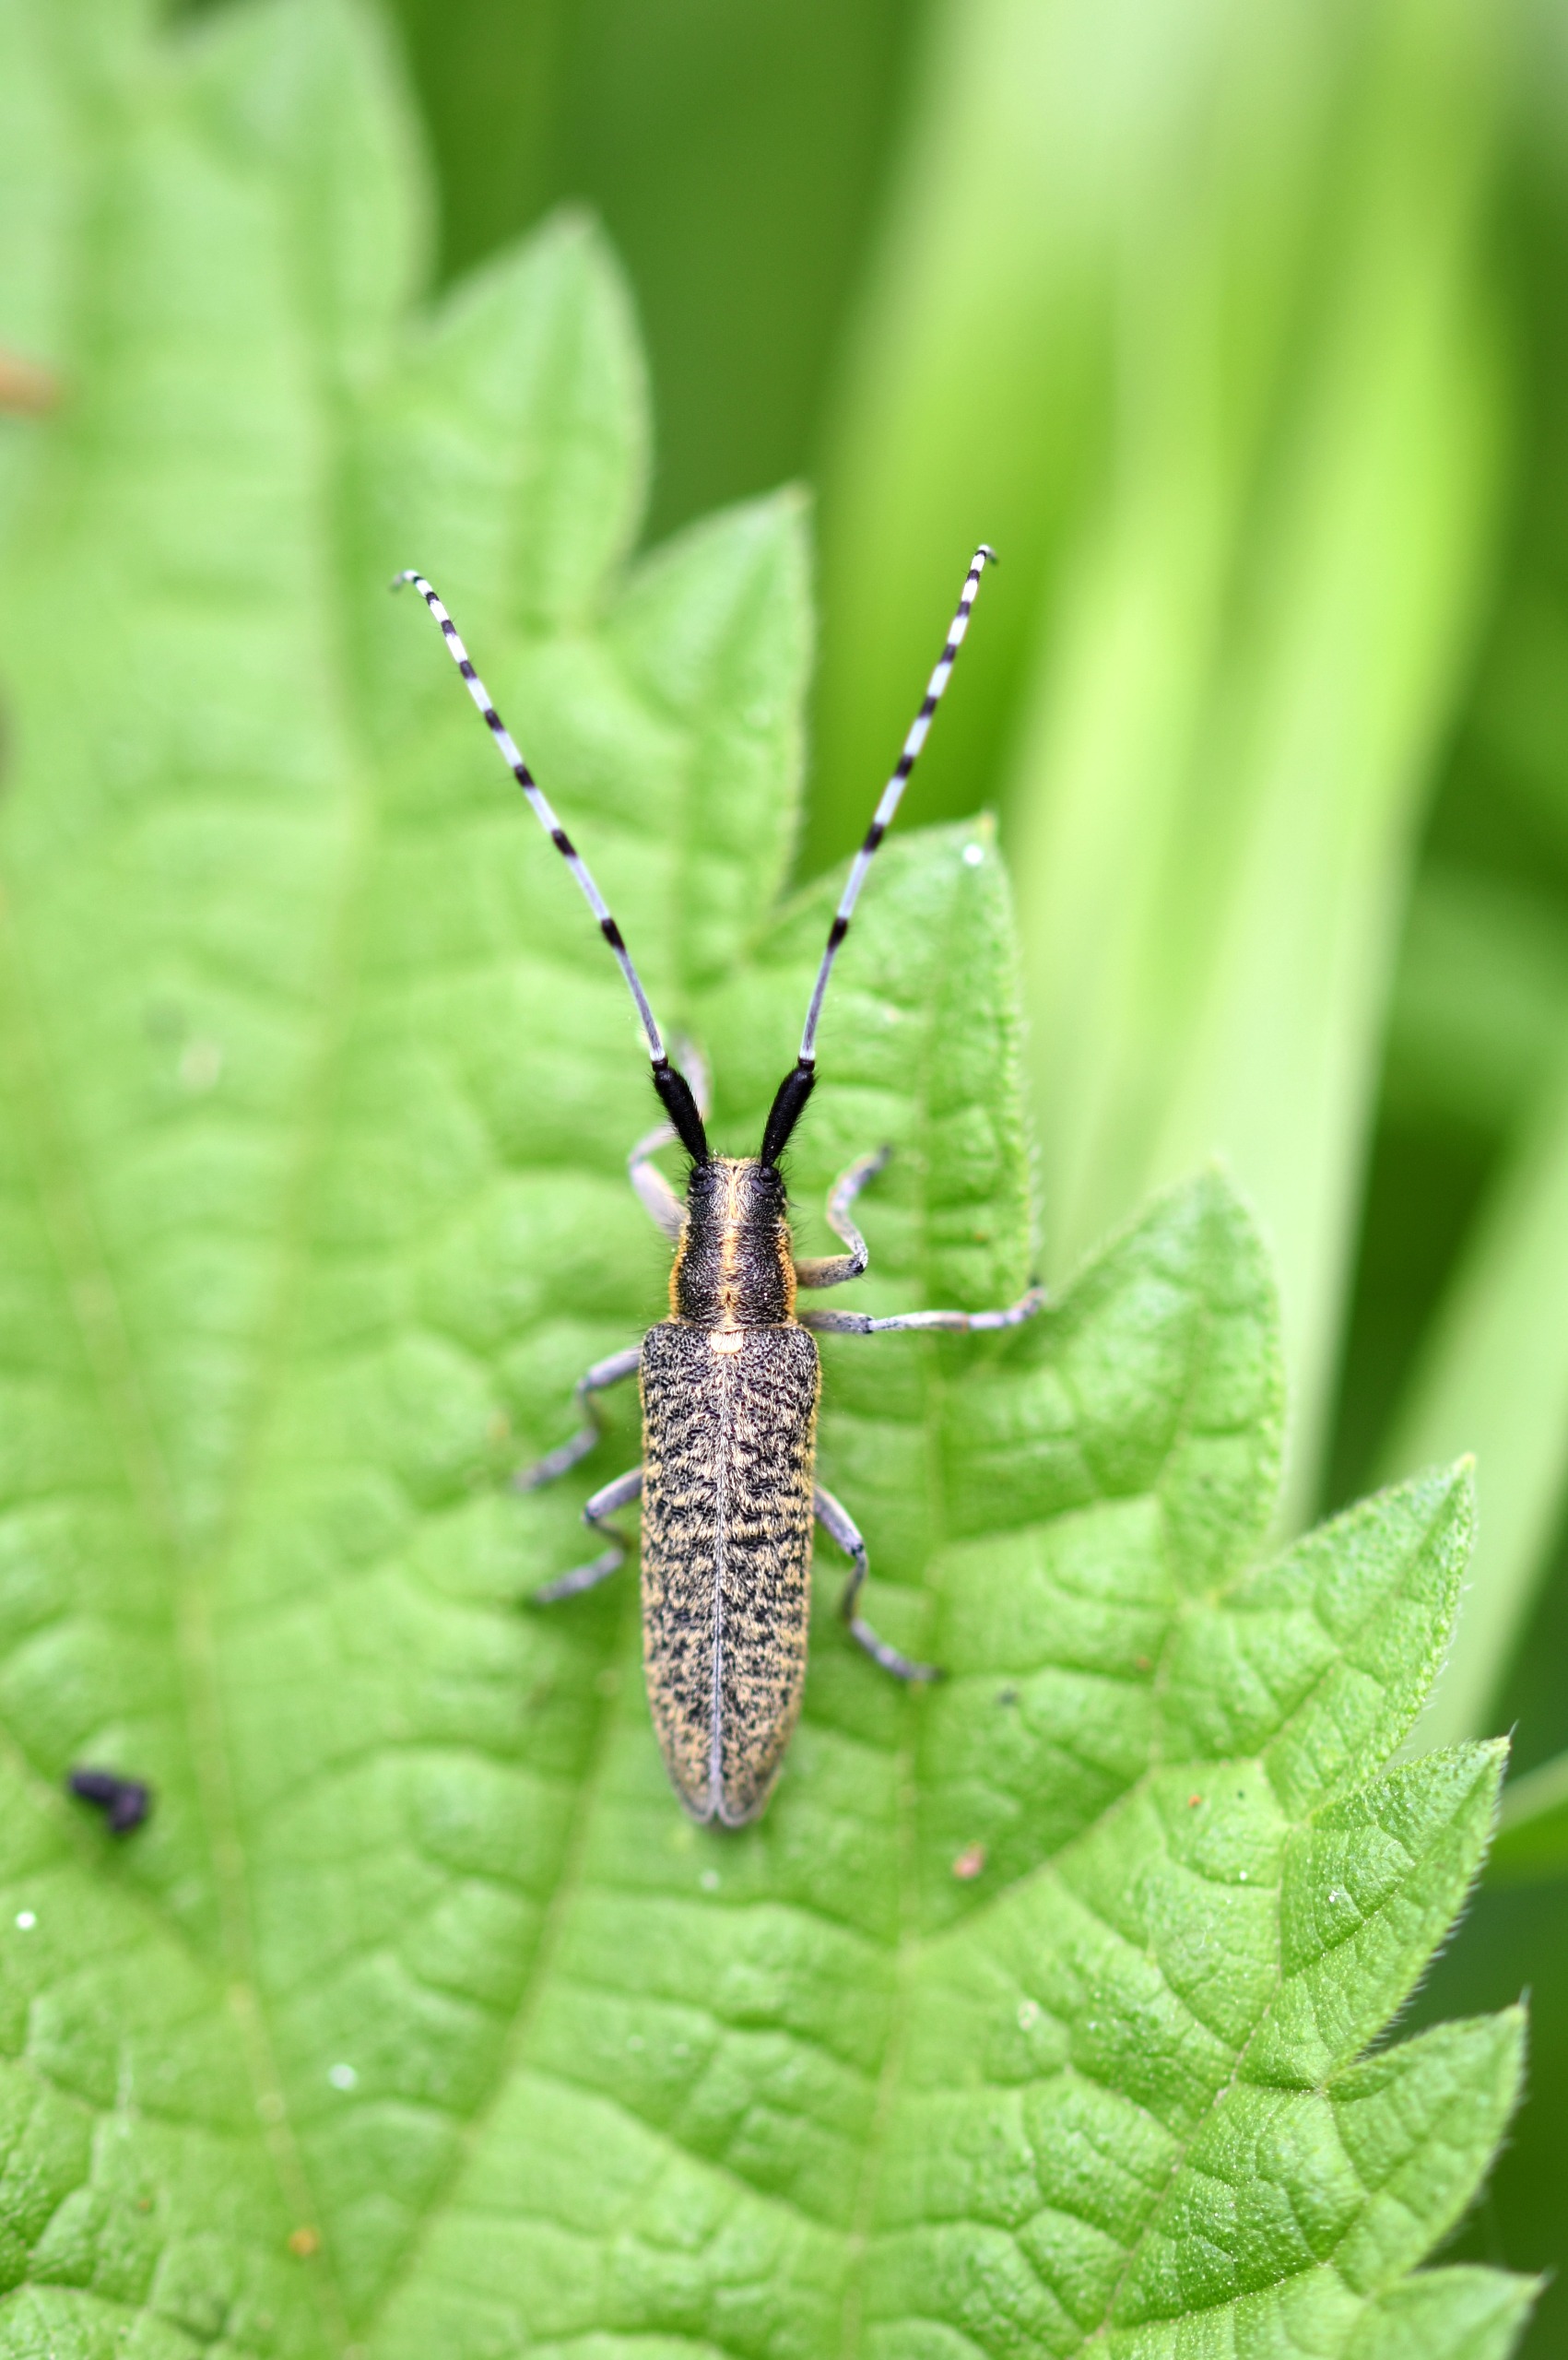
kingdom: Animalia
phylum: Arthropoda
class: Insecta
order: Coleoptera
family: Cerambycidae
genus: Agapanthia
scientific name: Agapanthia villosoviridescens
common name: Tidselbuk
